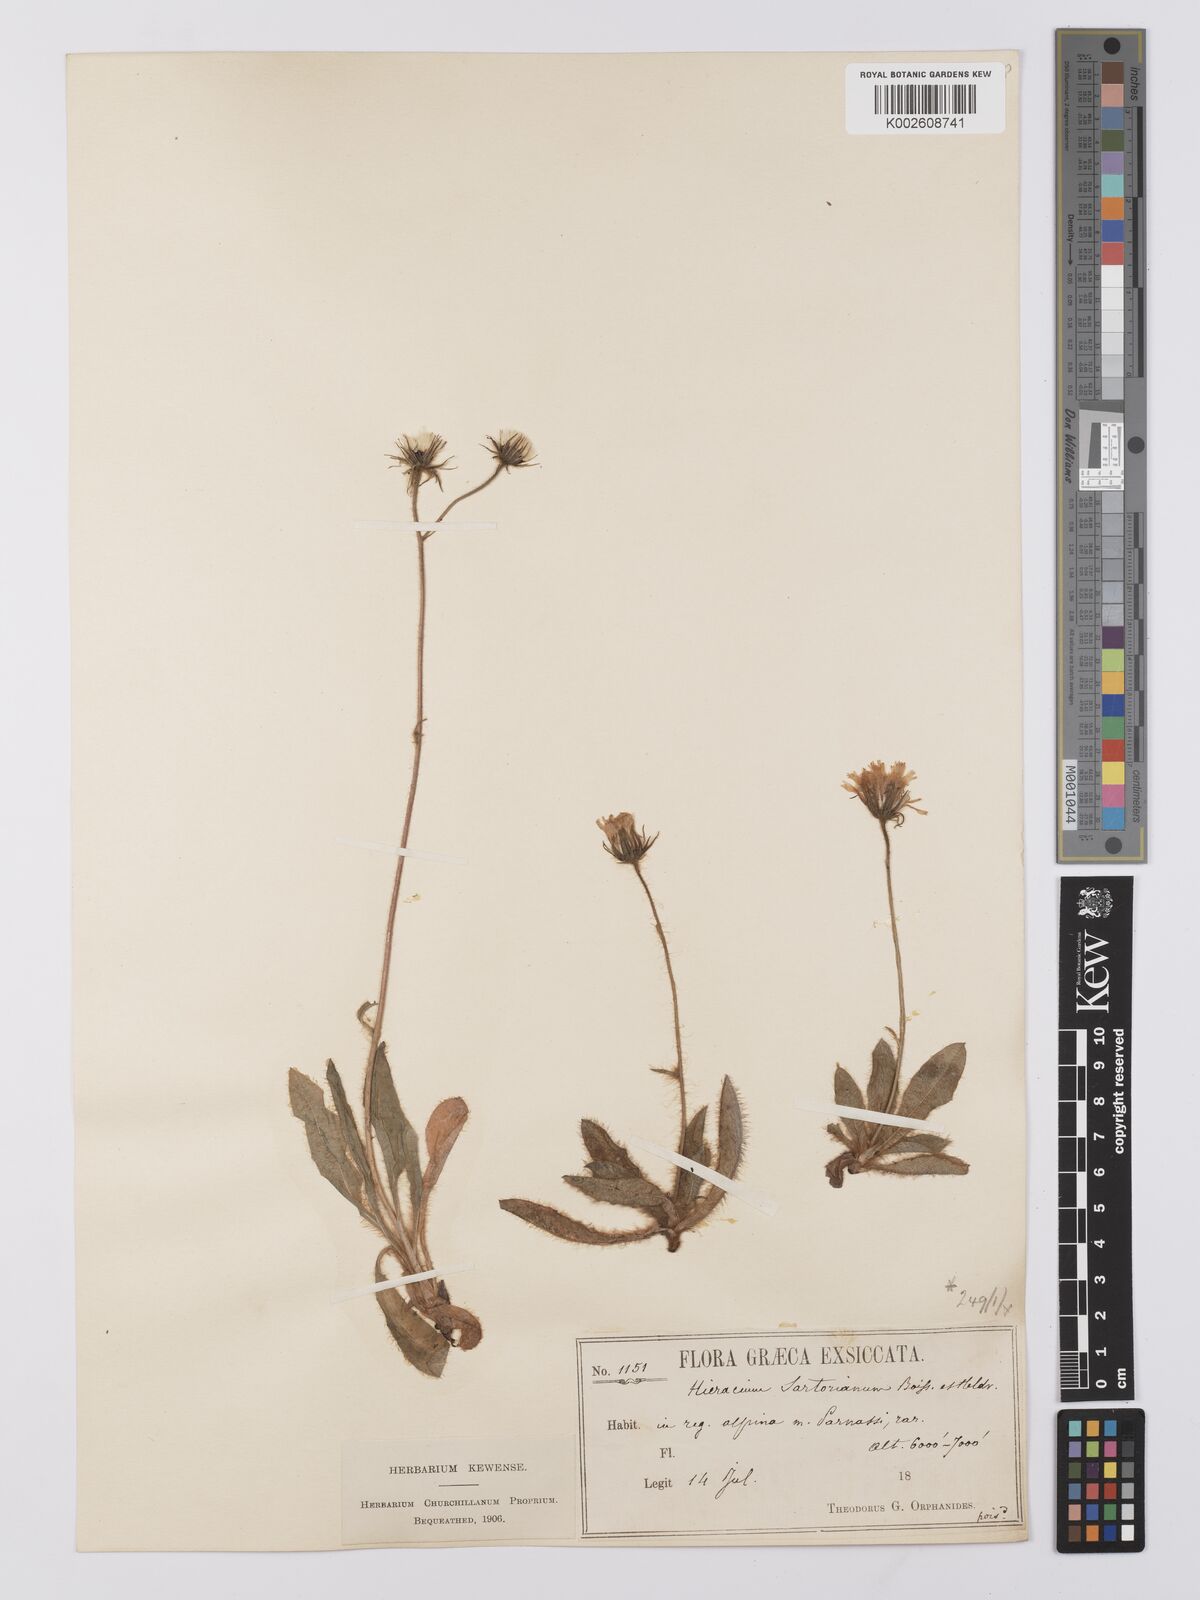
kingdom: Plantae
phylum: Tracheophyta
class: Magnoliopsida
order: Asterales
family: Asteraceae
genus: Hieracium
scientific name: Hieracium sartorianum
